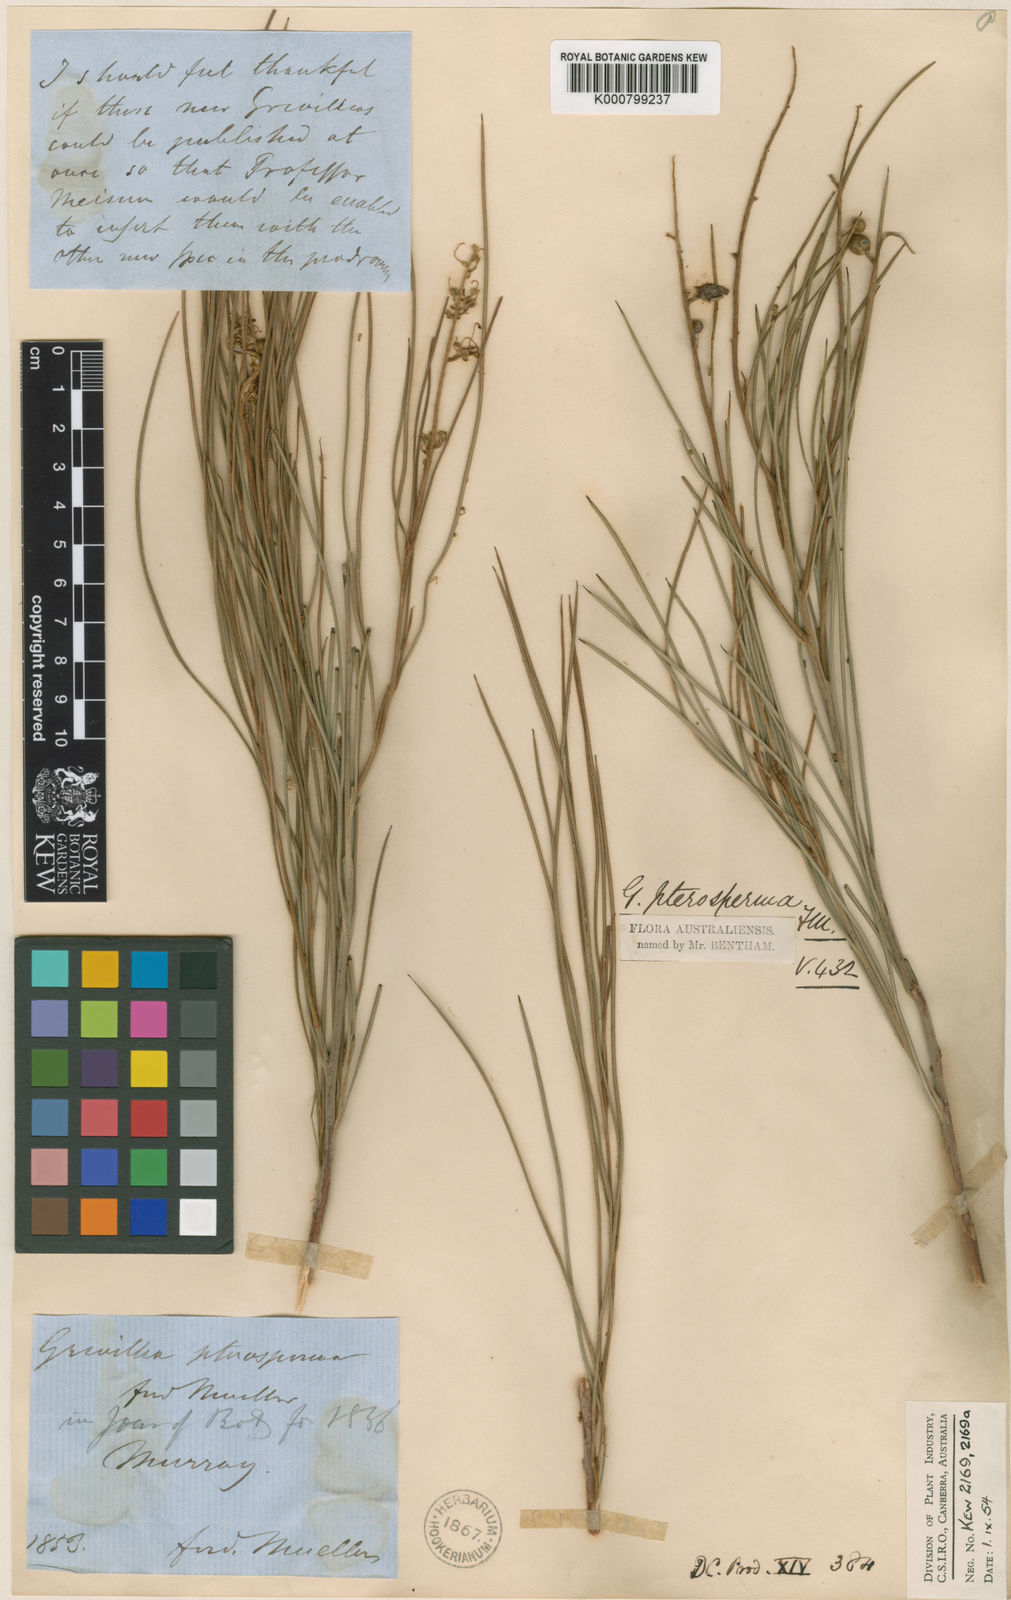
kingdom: Plantae
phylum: Tracheophyta
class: Magnoliopsida
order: Proteales
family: Proteaceae
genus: Grevillea
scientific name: Grevillea pterosperma
